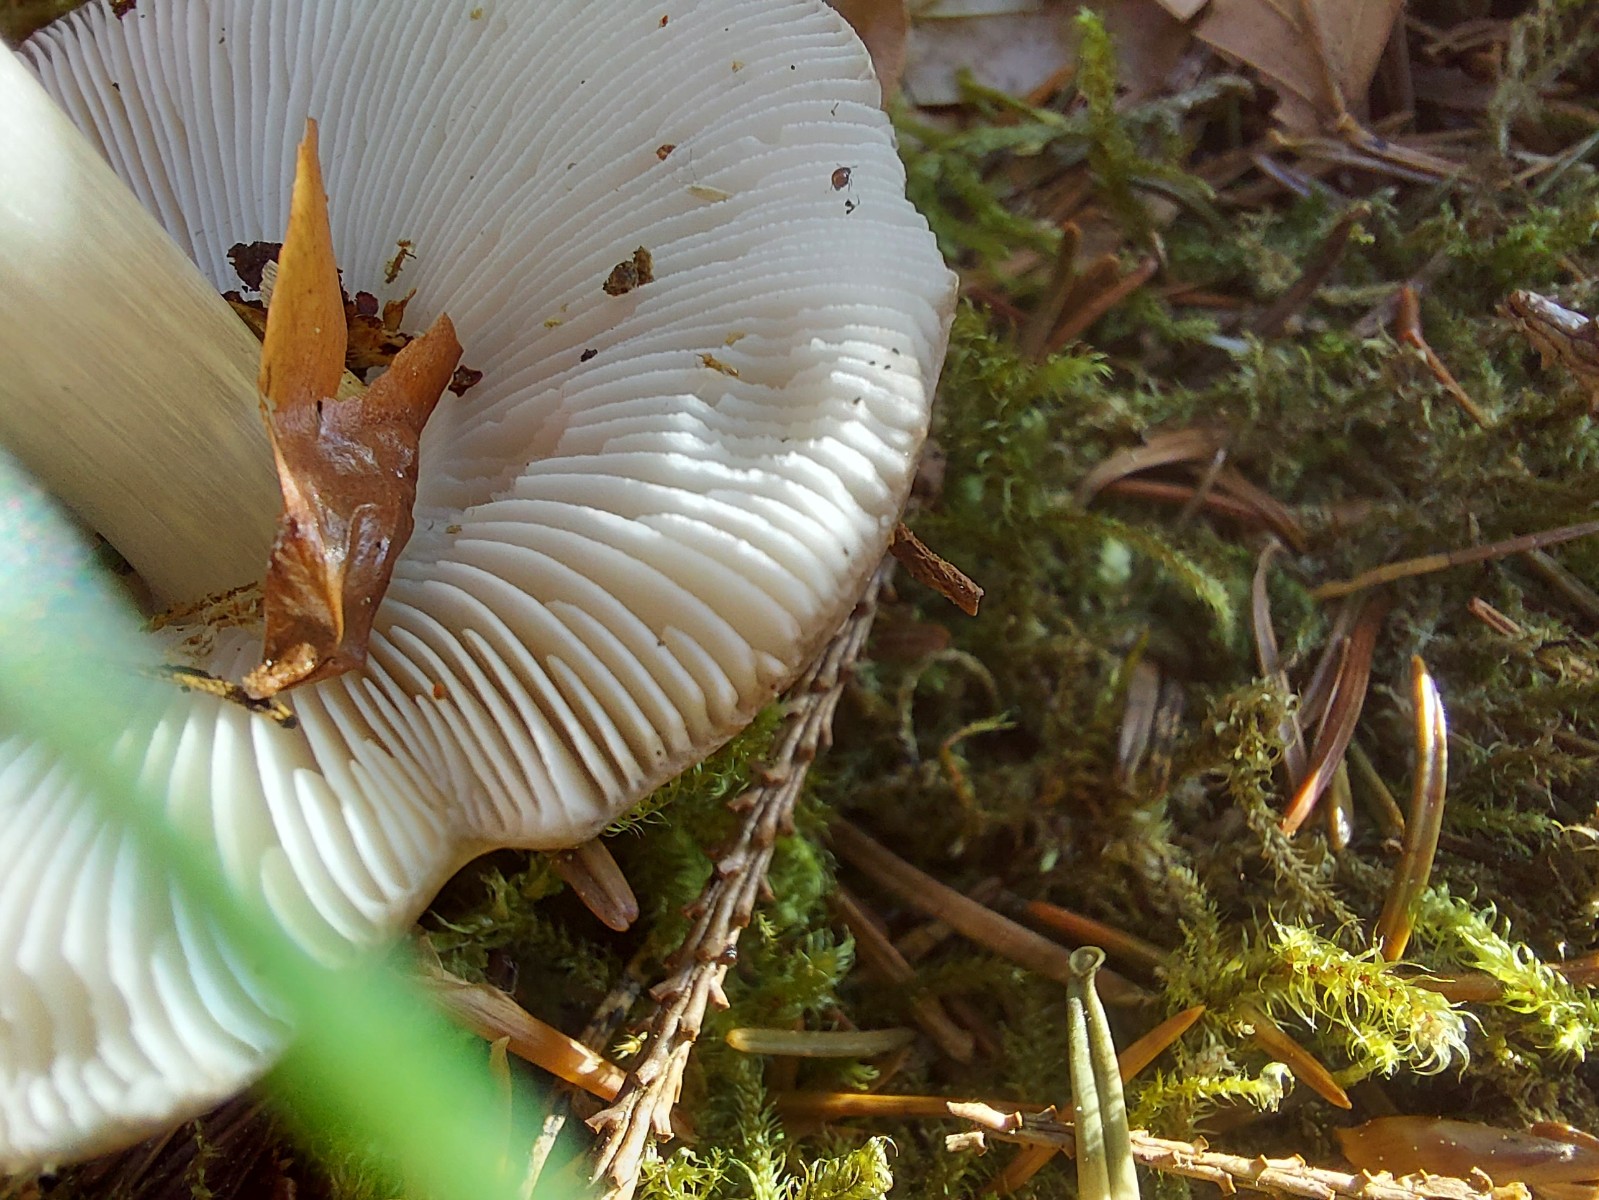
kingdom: Fungi
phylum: Basidiomycota
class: Agaricomycetes
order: Agaricales
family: Pluteaceae
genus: Pluteus
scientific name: Pluteus
